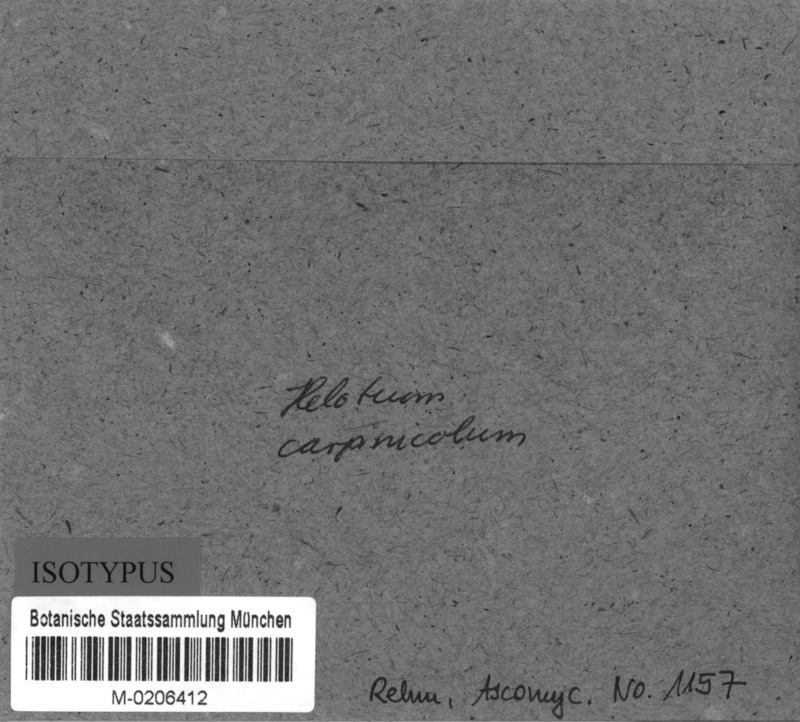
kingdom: Fungi
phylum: Ascomycota
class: Leotiomycetes
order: Helotiales
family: Helotiaceae
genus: Hymenoscyphus
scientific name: Hymenoscyphus carpinicola
